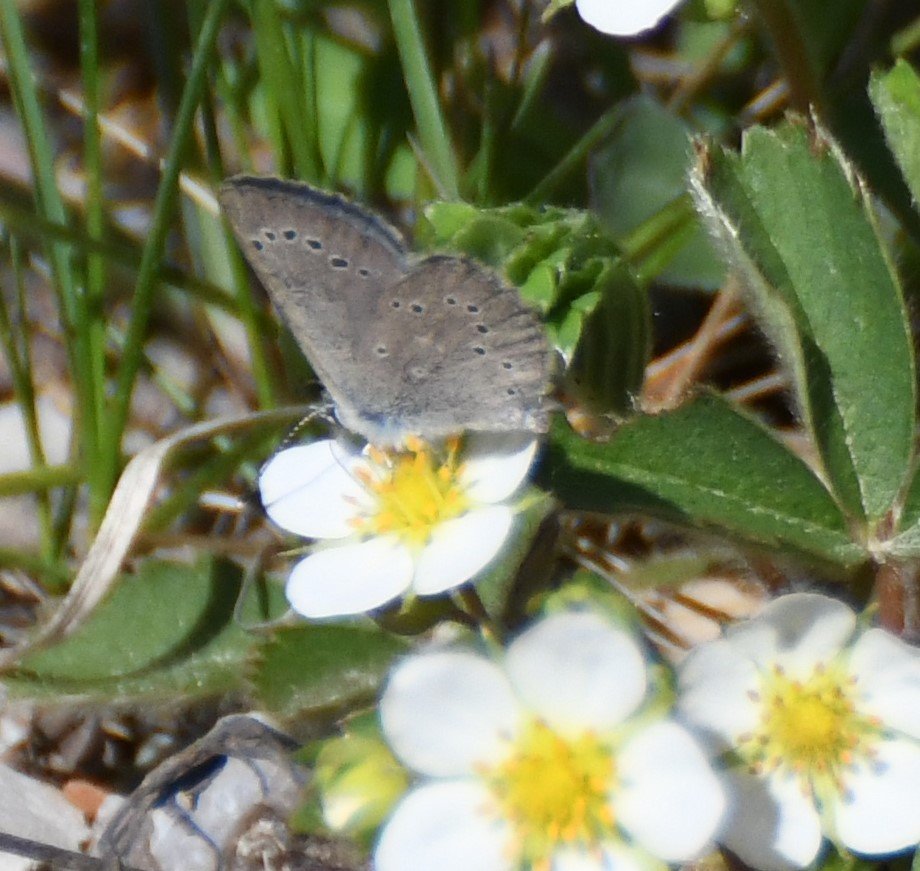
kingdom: Animalia
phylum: Arthropoda
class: Insecta
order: Lepidoptera
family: Lycaenidae
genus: Glaucopsyche
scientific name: Glaucopsyche lygdamus
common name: Silvery Blue
